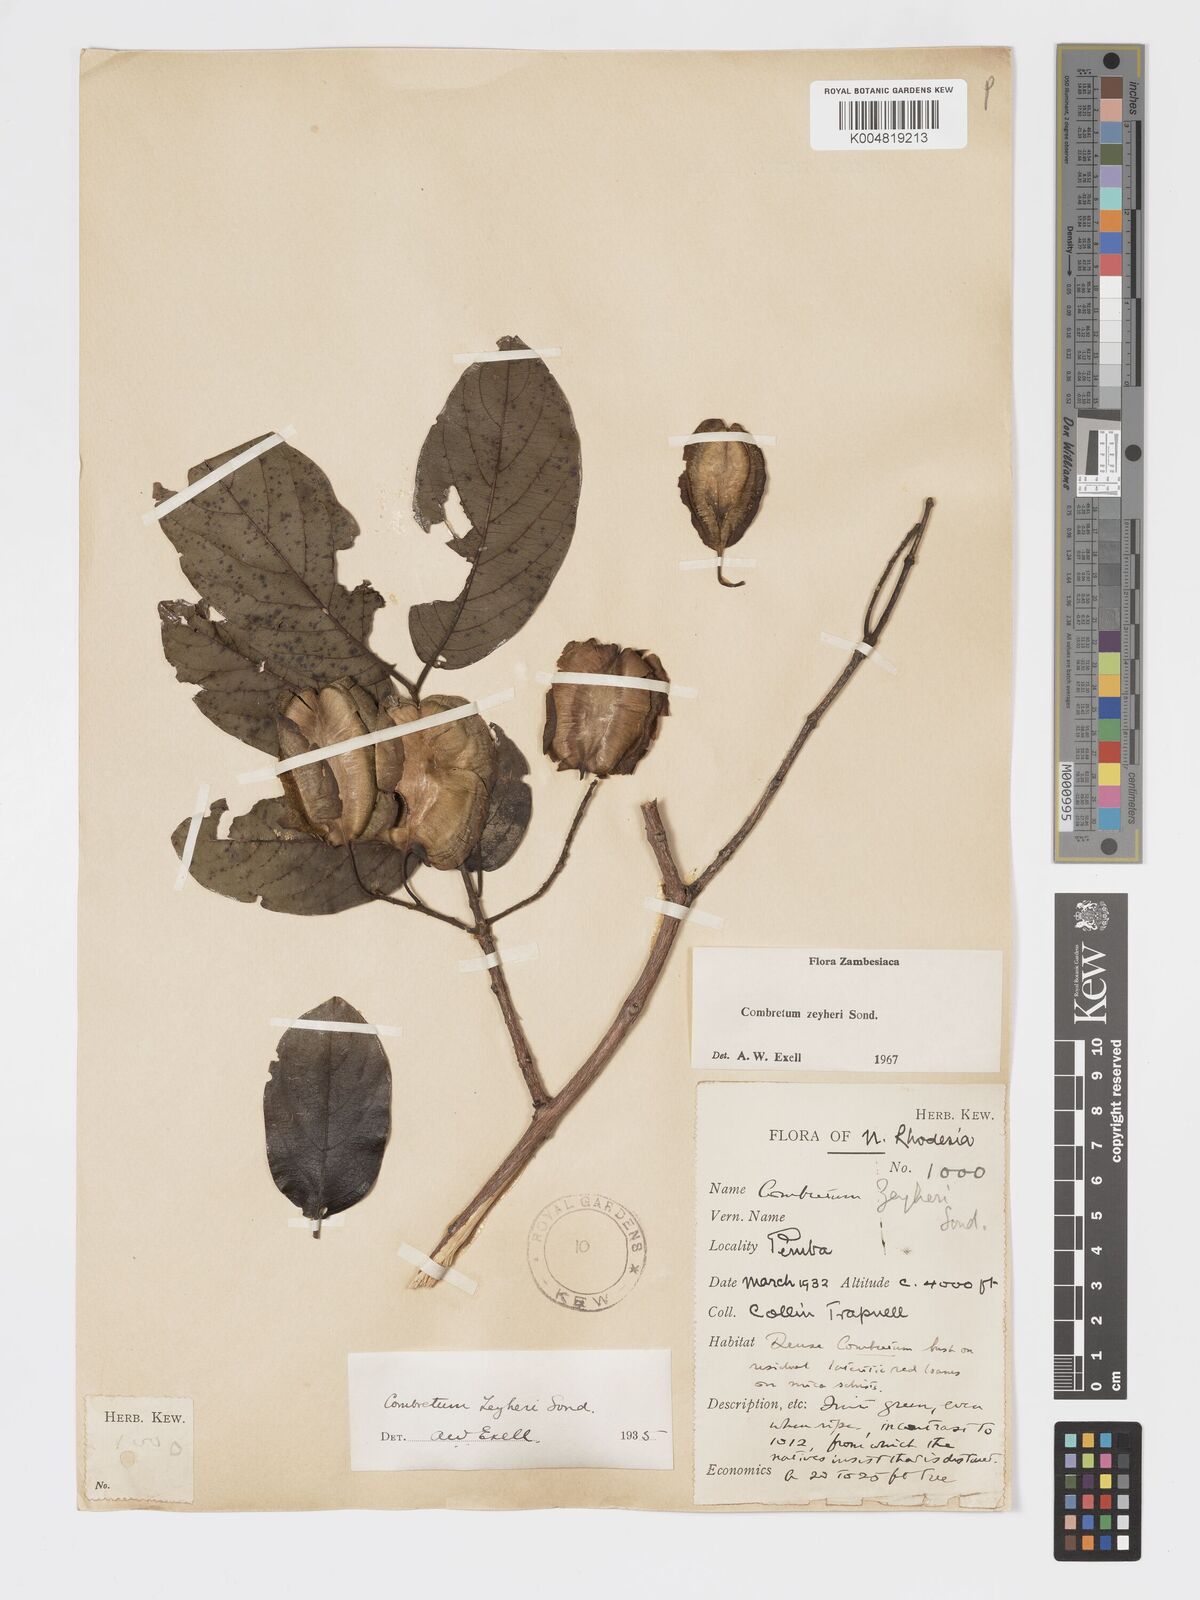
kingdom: Plantae
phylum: Tracheophyta
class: Magnoliopsida
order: Myrtales
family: Combretaceae
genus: Combretum
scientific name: Combretum zeyheri
